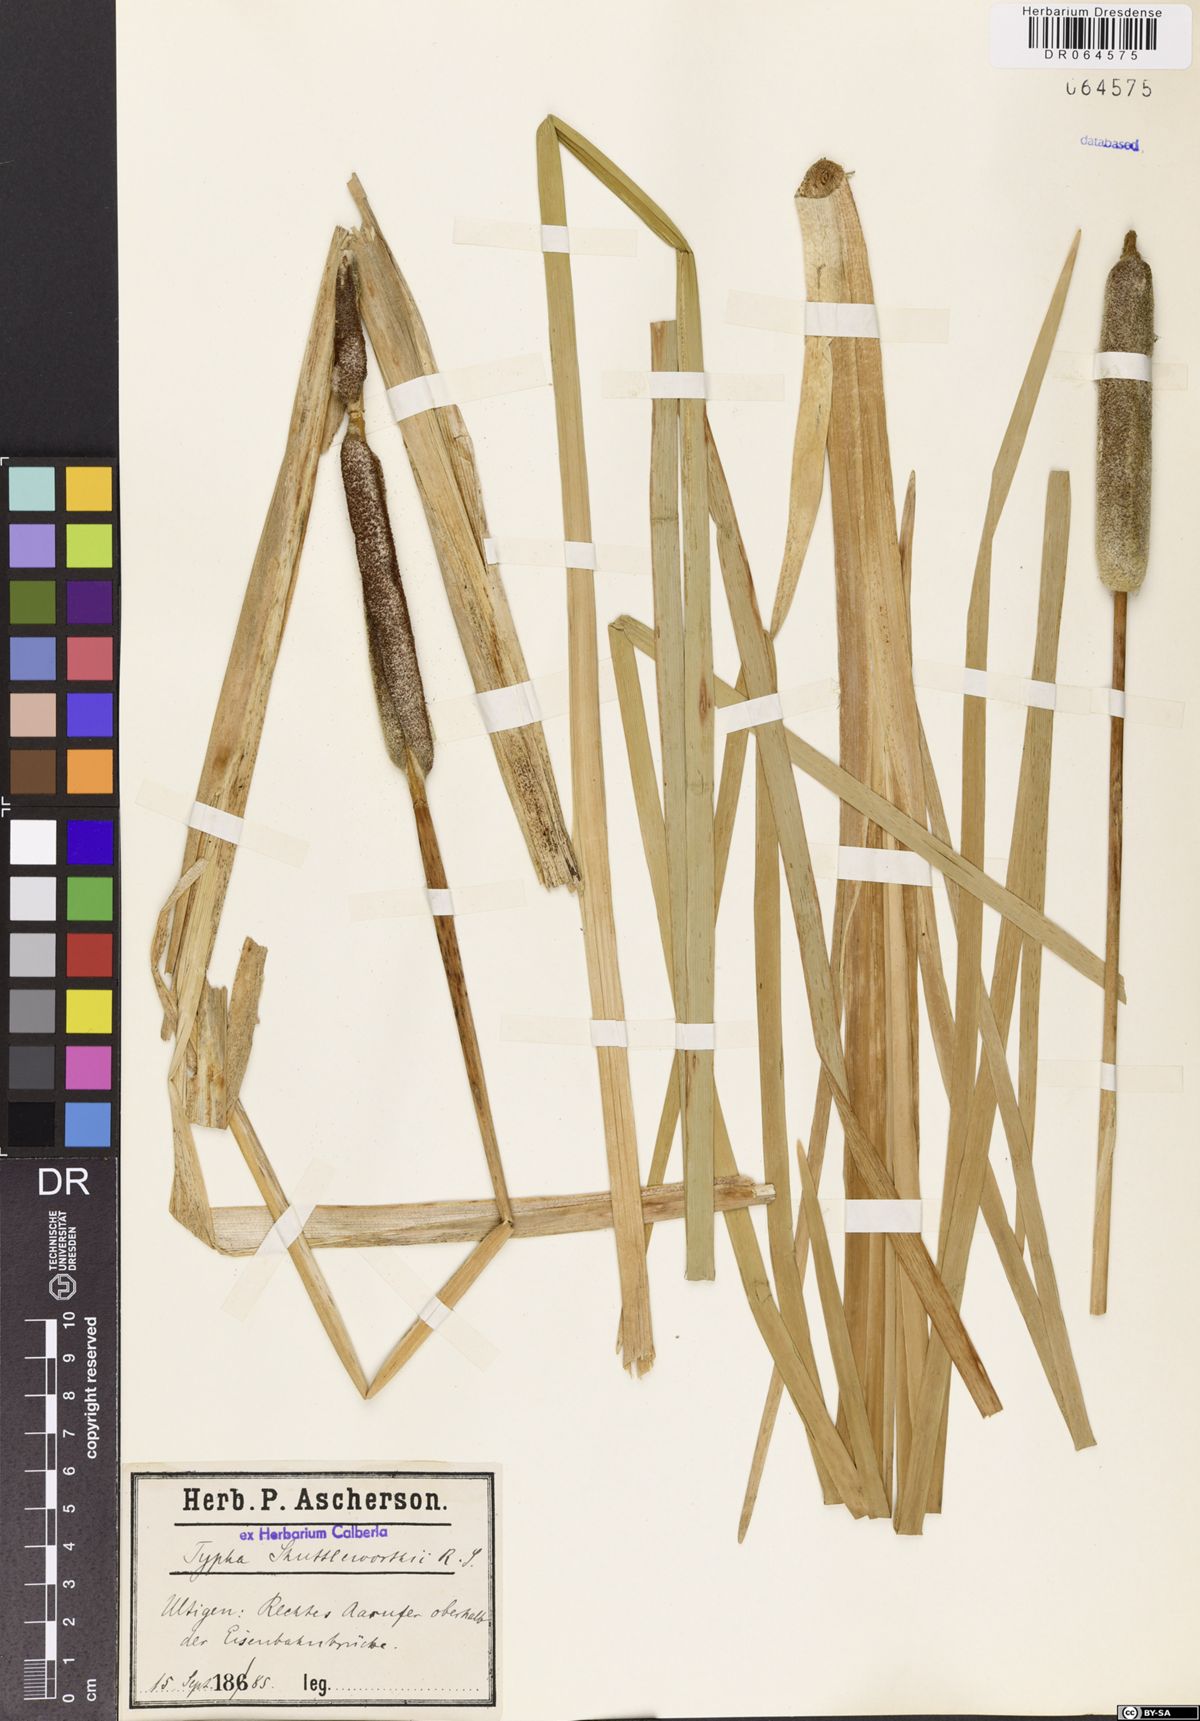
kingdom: Plantae
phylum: Tracheophyta
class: Liliopsida
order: Poales
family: Typhaceae
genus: Typha
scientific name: Typha shuttleworthii
